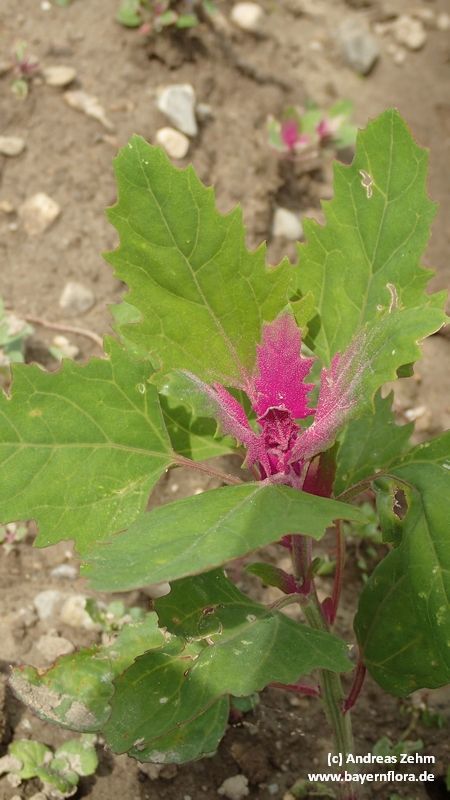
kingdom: Plantae
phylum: Tracheophyta
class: Magnoliopsida
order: Caryophyllales
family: Amaranthaceae
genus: Chenopodium
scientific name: Chenopodium giganteum
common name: Magentaspreen
